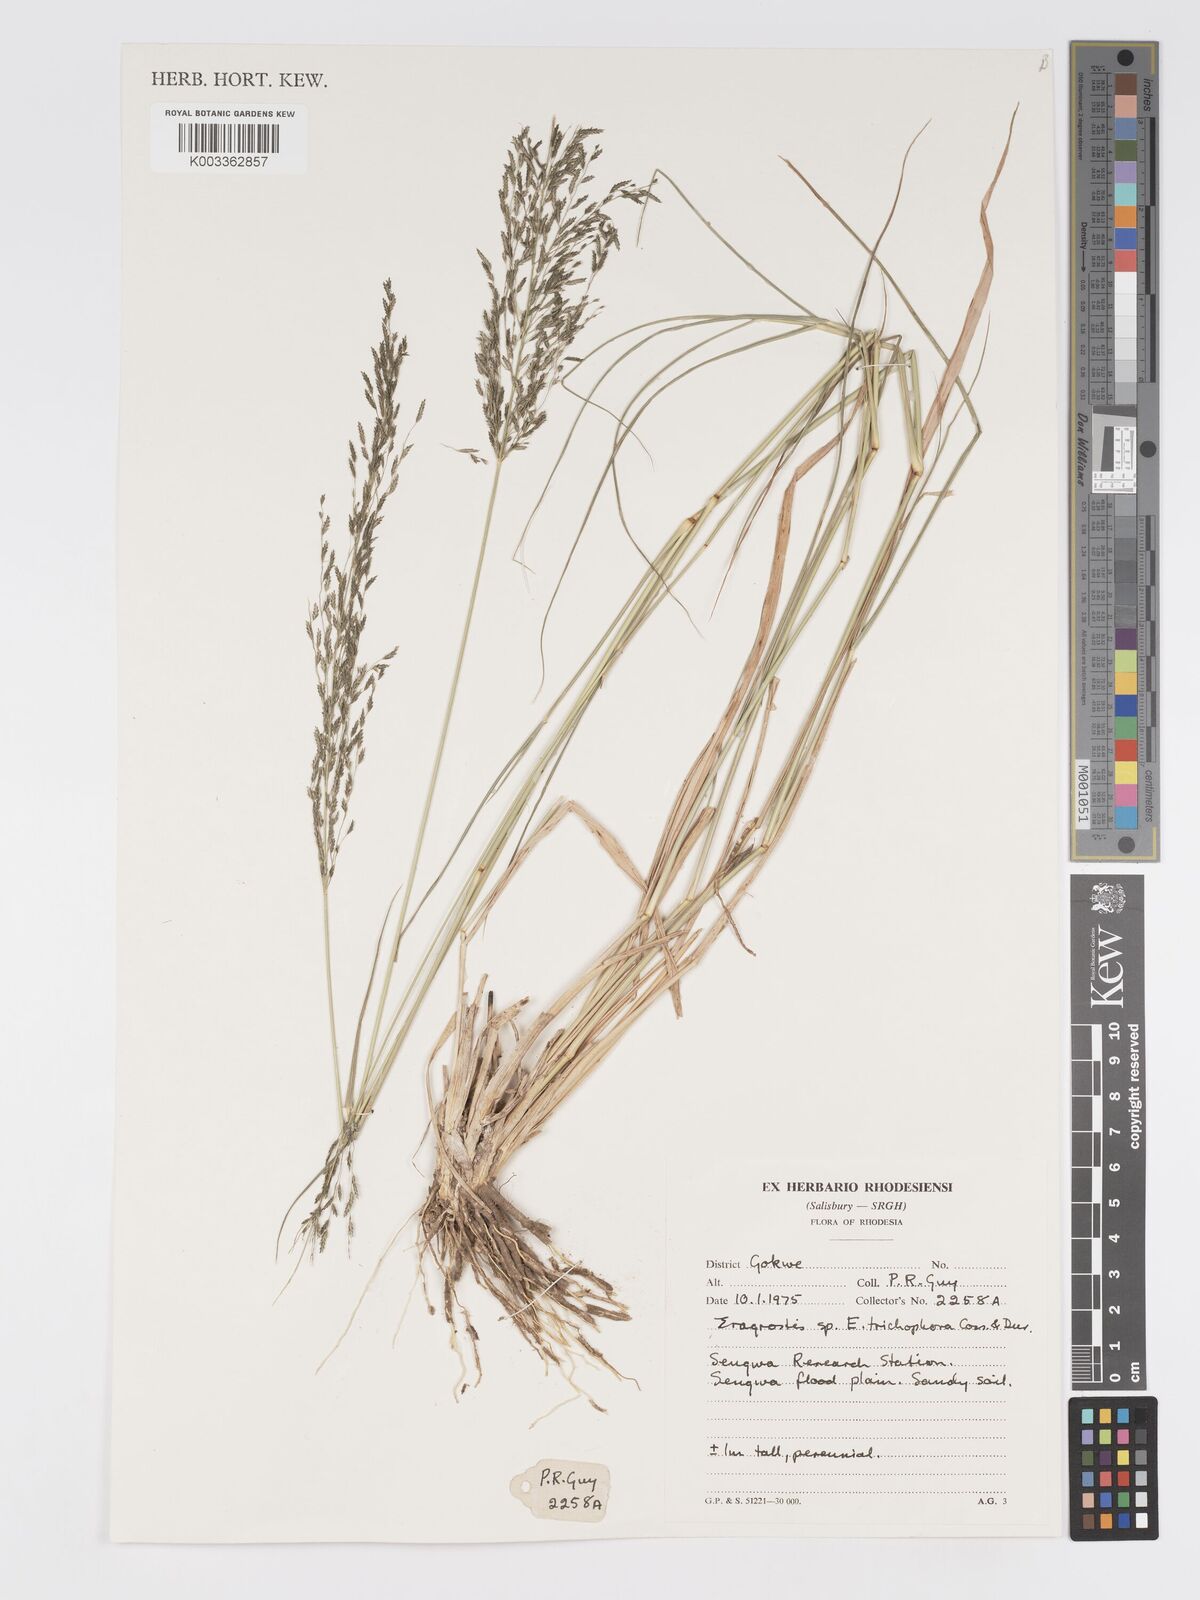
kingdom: Plantae
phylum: Tracheophyta
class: Liliopsida
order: Poales
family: Poaceae
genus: Eragrostis
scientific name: Eragrostis cylindriflora
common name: Cylinderflower lovegrass
